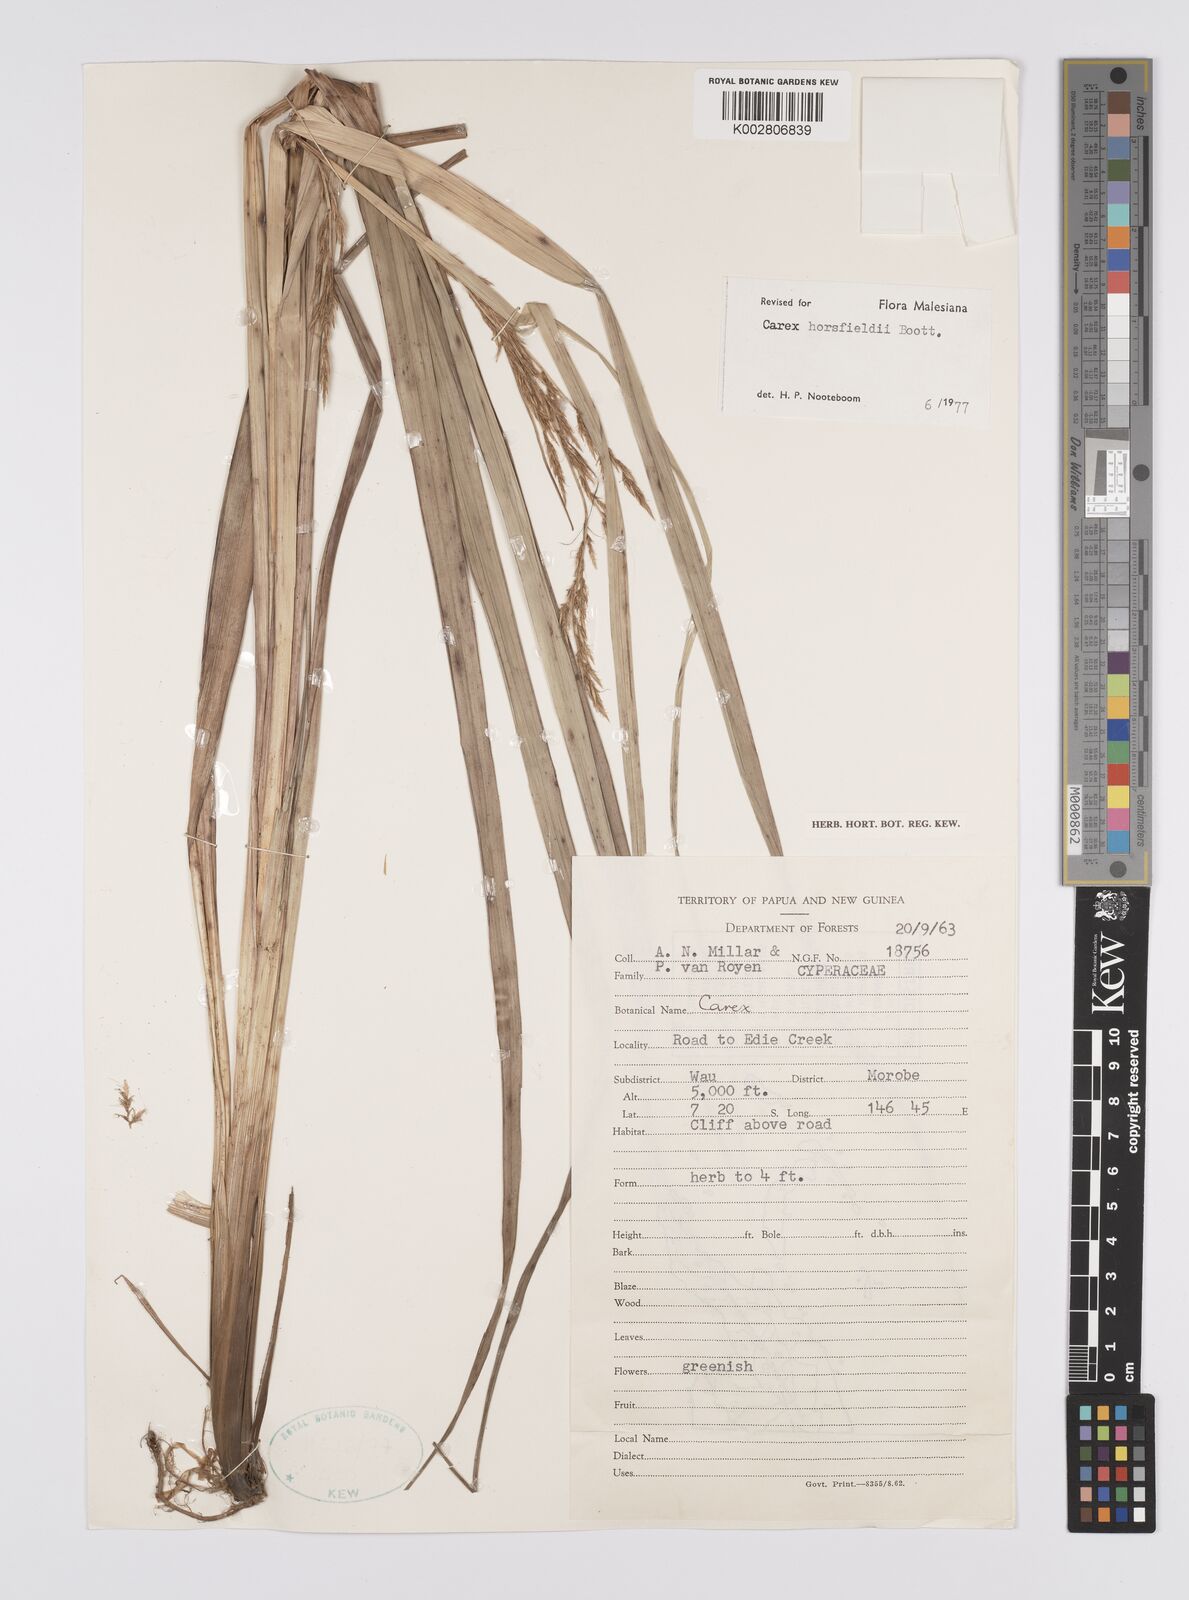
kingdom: Plantae
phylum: Tracheophyta
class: Liliopsida
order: Poales
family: Cyperaceae
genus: Carex
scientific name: Carex horsfieldii
